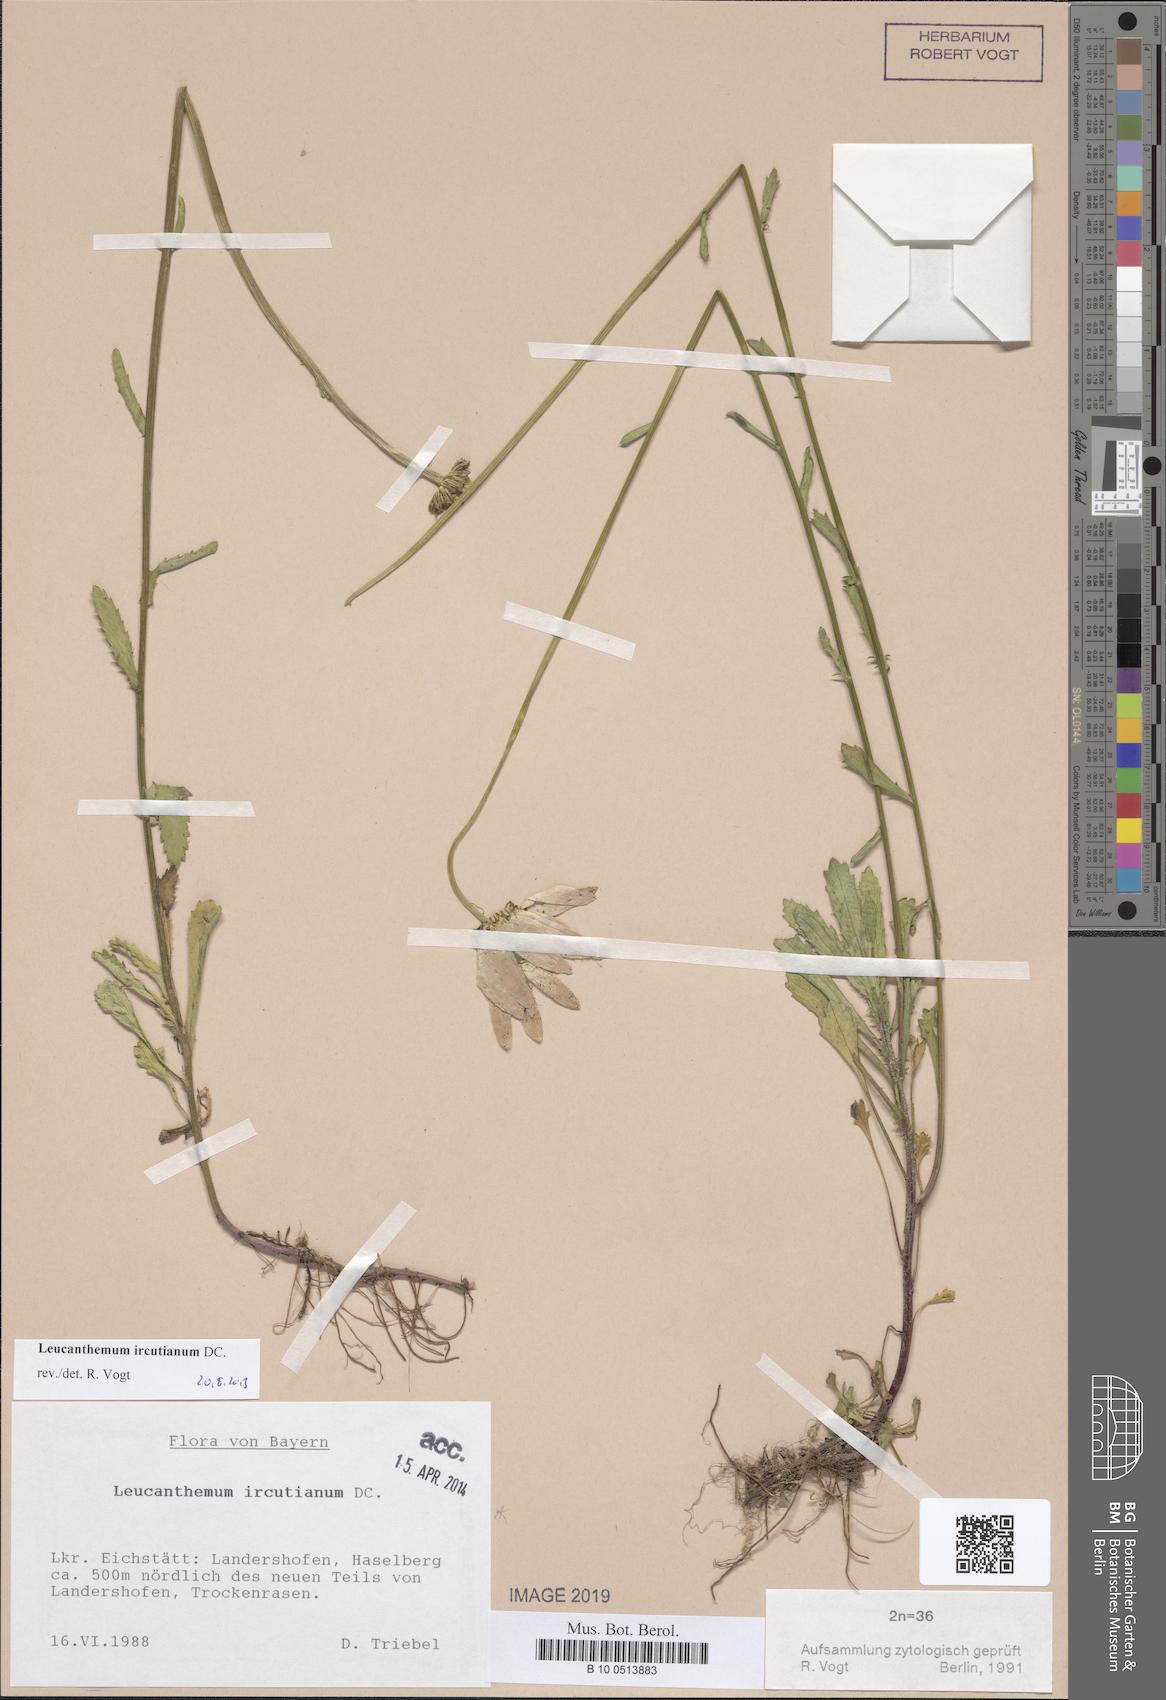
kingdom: Plantae
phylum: Tracheophyta
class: Magnoliopsida
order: Asterales
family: Asteraceae
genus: Leucanthemum
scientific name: Leucanthemum ircutianum
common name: Daisy
